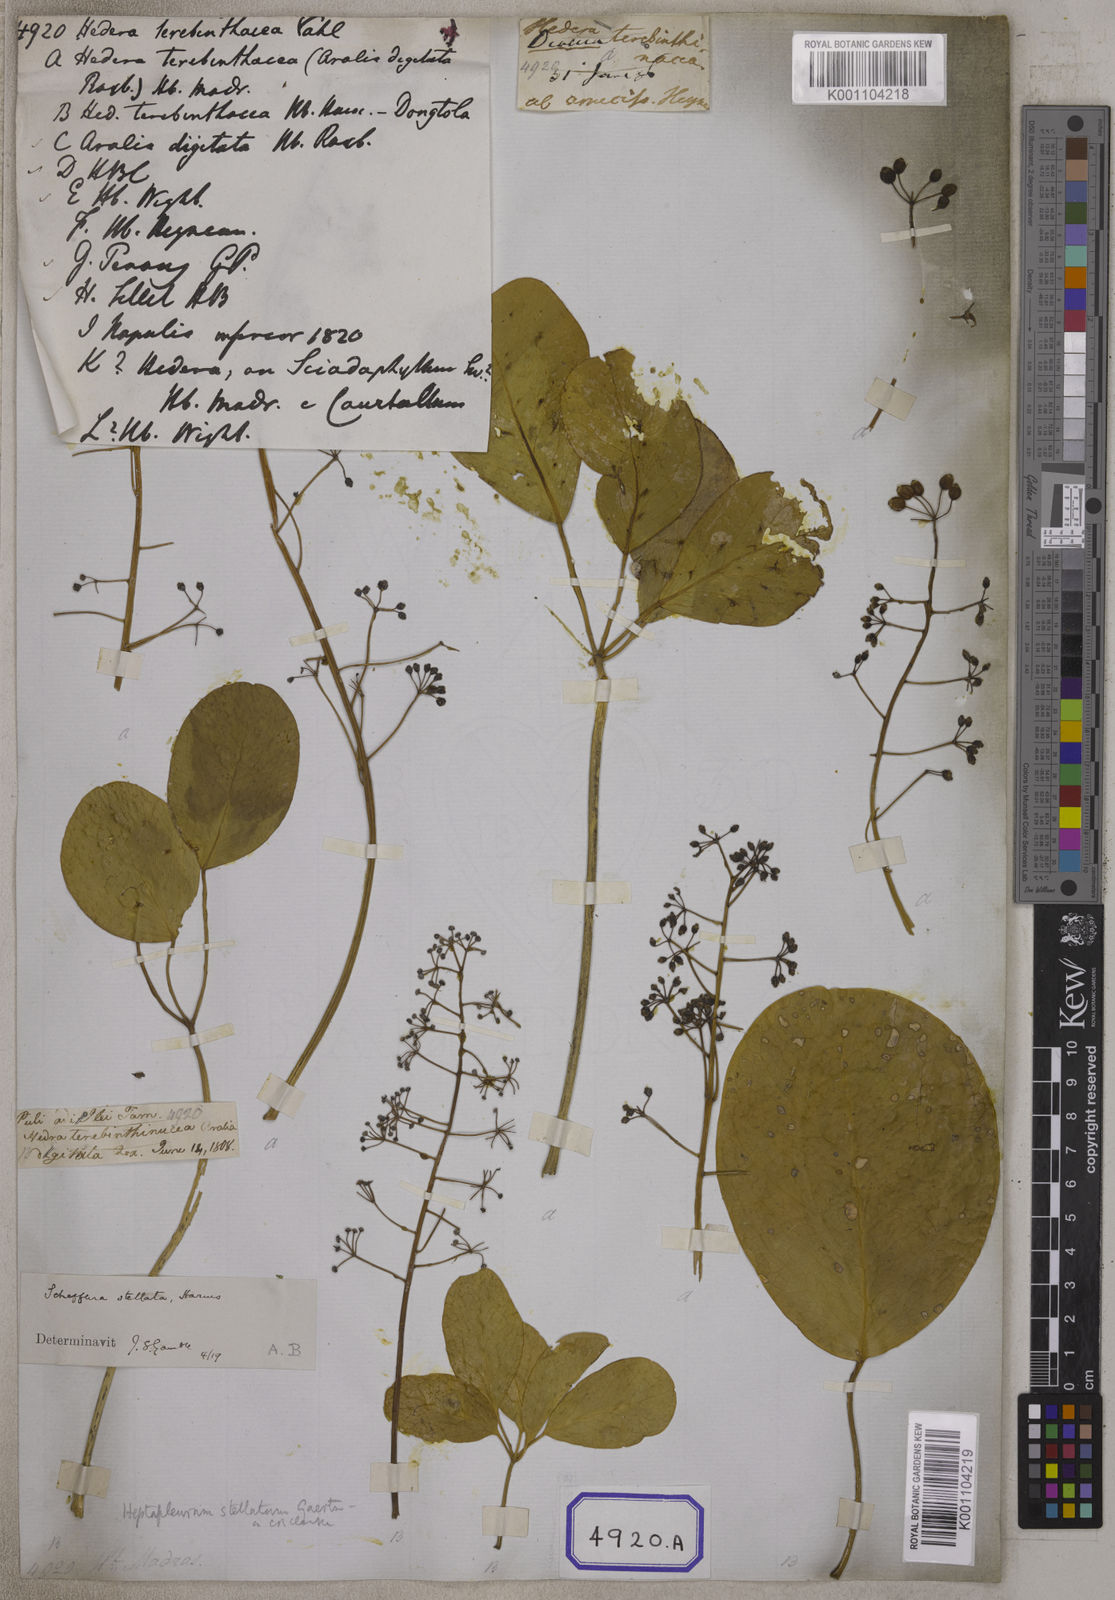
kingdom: Plantae
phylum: Tracheophyta
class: Magnoliopsida
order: Apiales
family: Araliaceae
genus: Hedera
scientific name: Hedera
